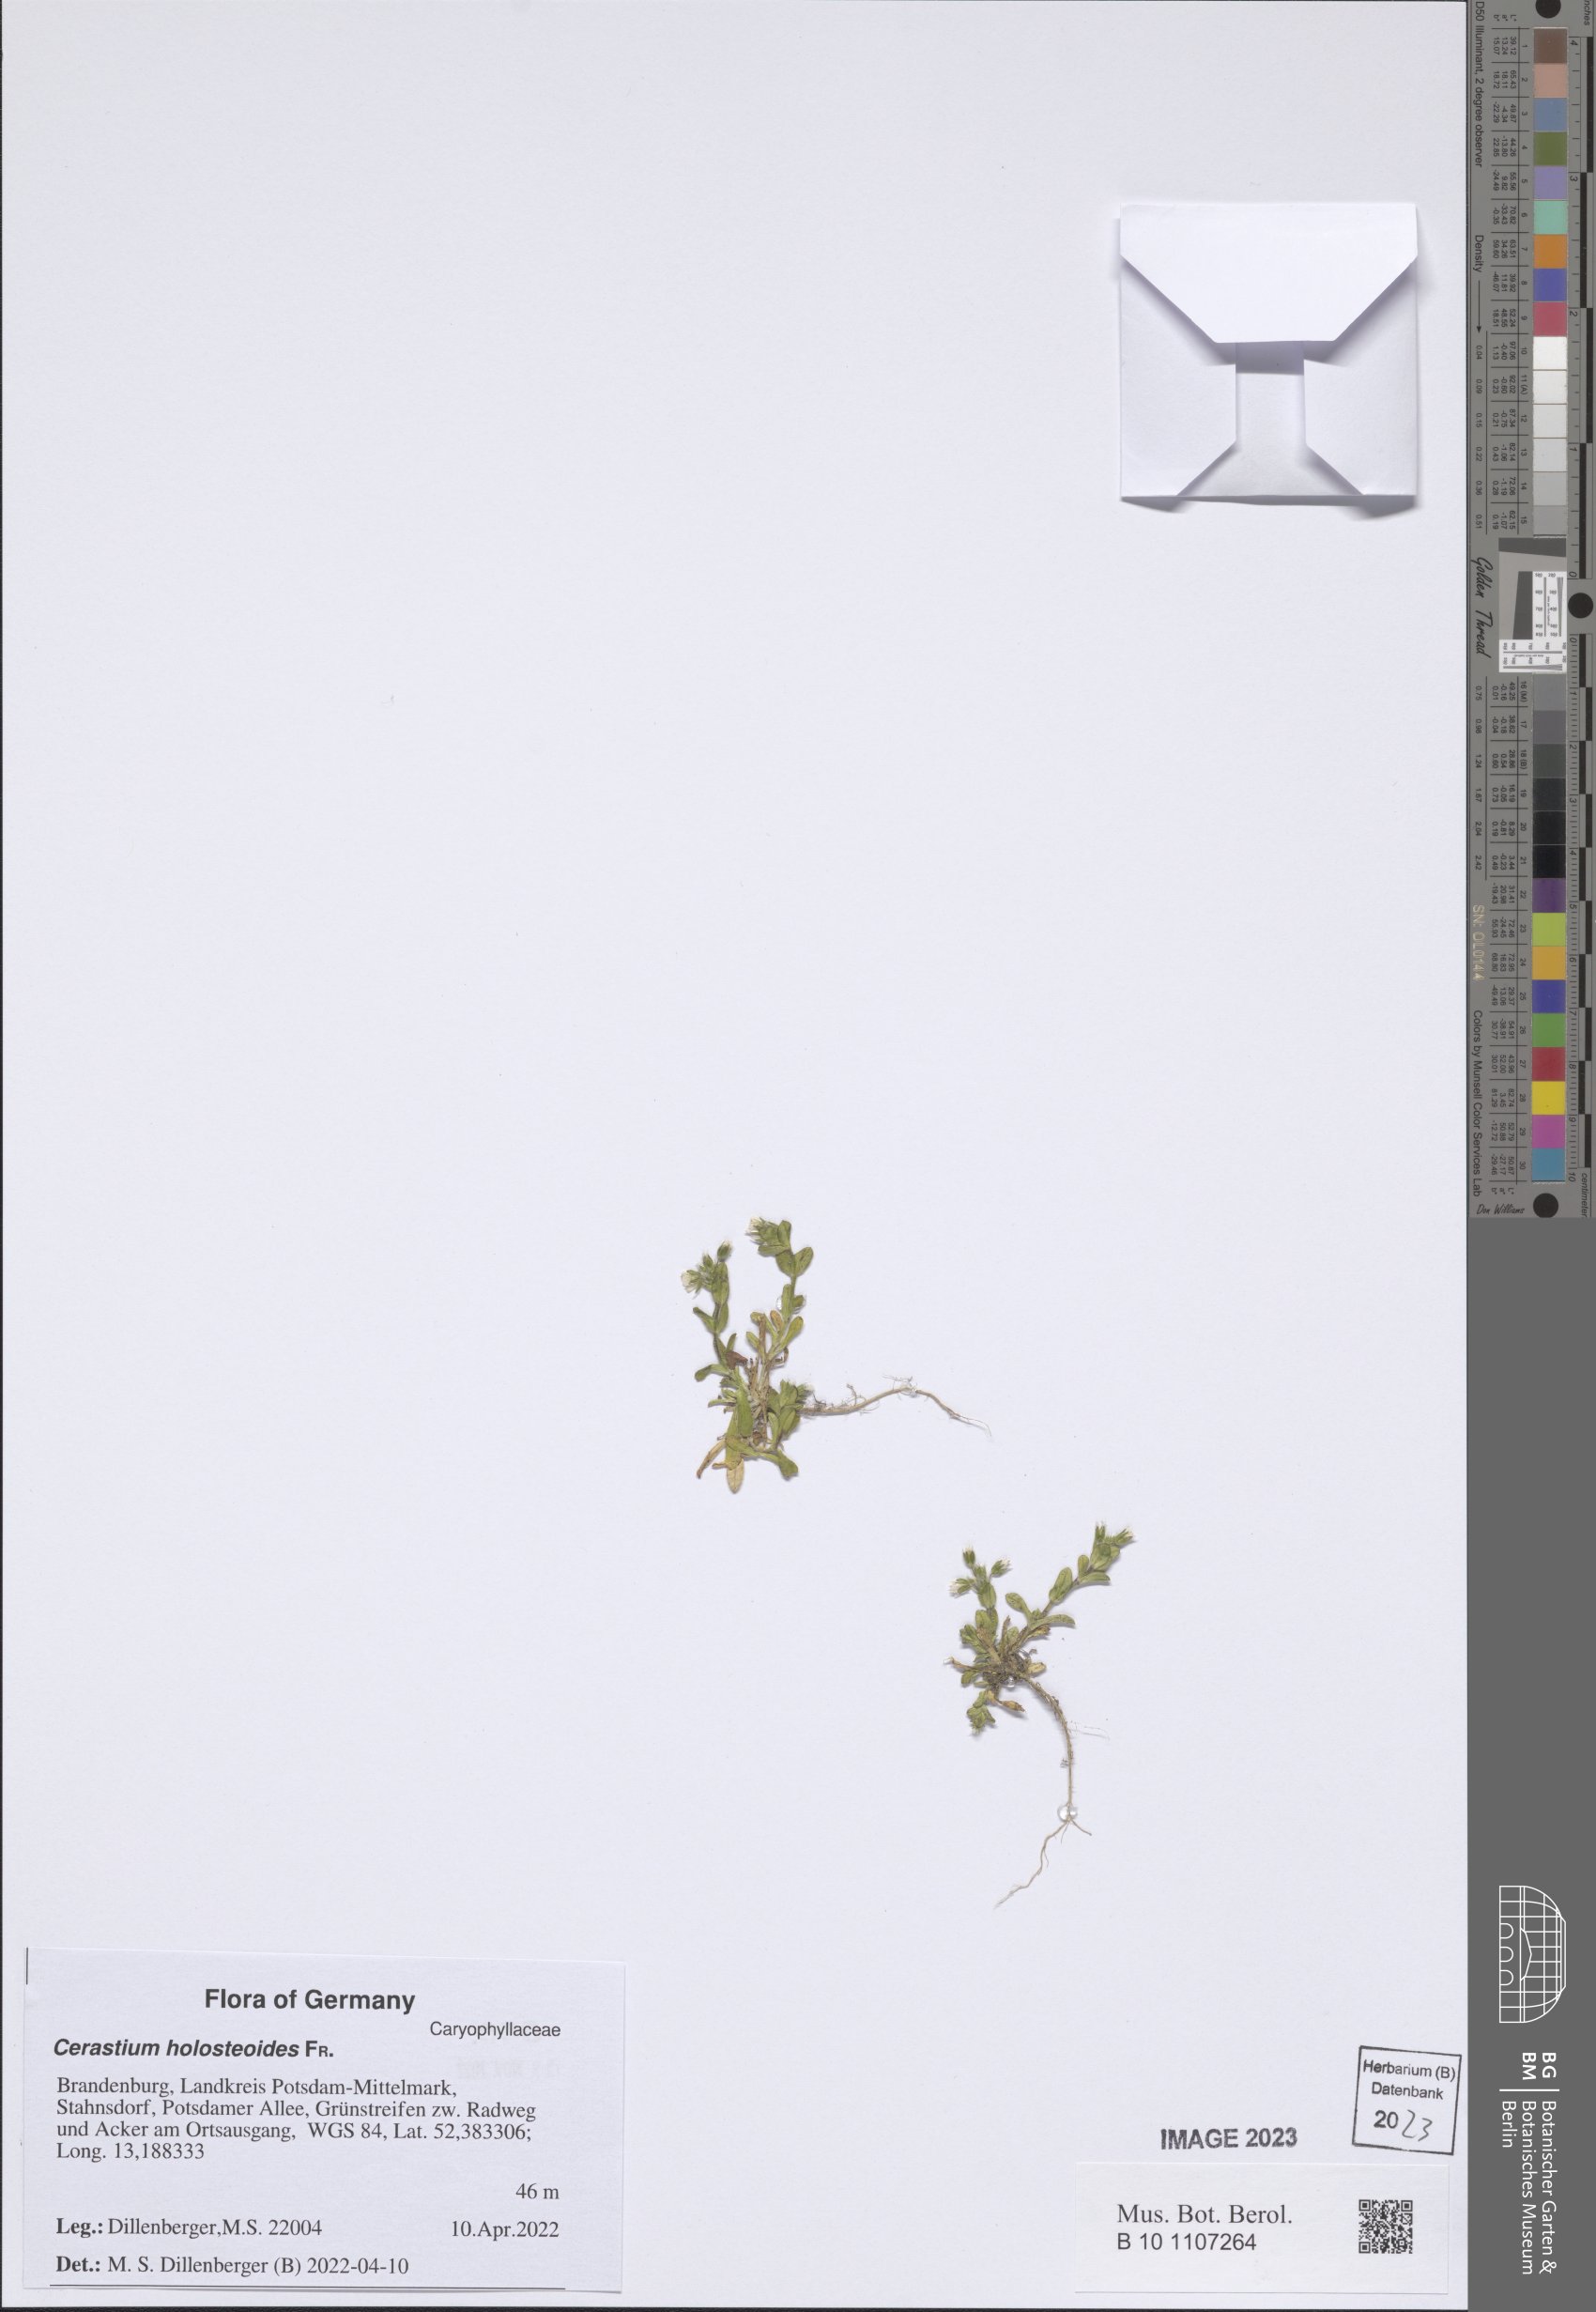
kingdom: Plantae
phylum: Tracheophyta
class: Magnoliopsida
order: Caryophyllales
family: Caryophyllaceae
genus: Cerastium
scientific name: Cerastium holosteoides
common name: Big chickweed
